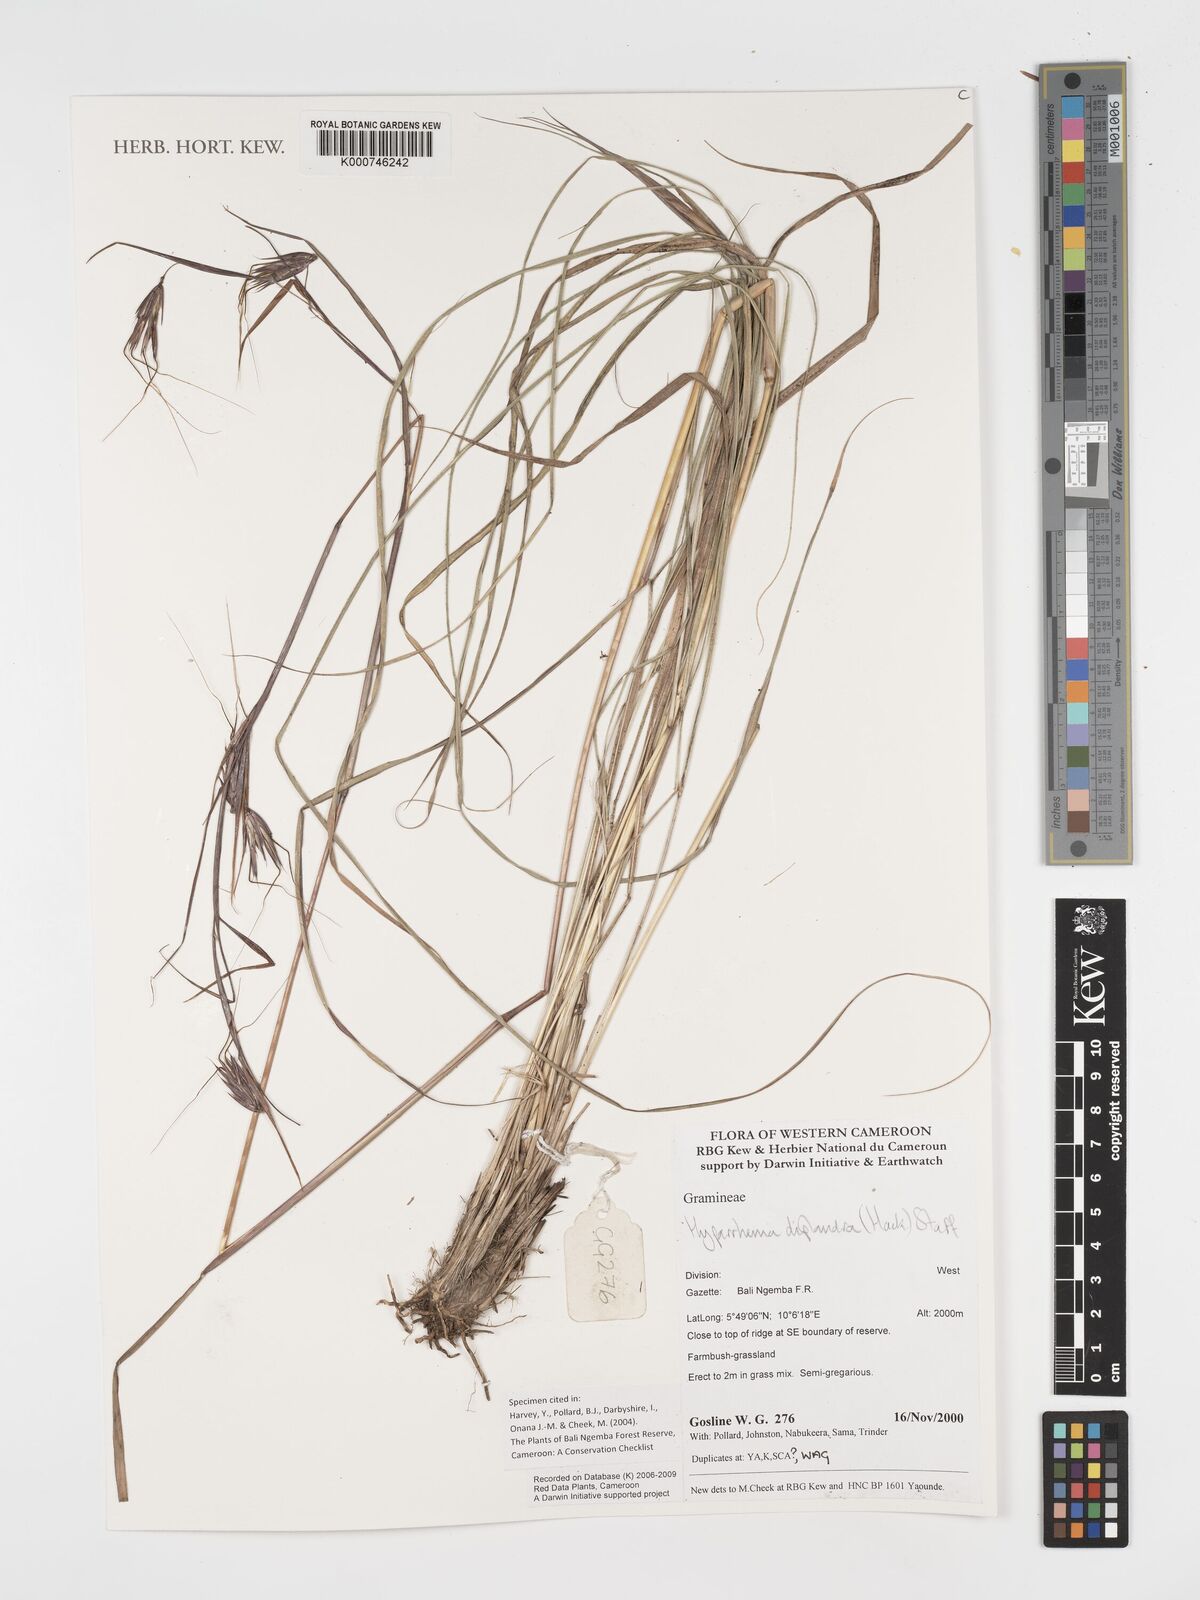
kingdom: Plantae
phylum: Tracheophyta
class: Liliopsida
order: Poales
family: Poaceae
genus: Hyparrhenia
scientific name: Hyparrhenia diplandra
